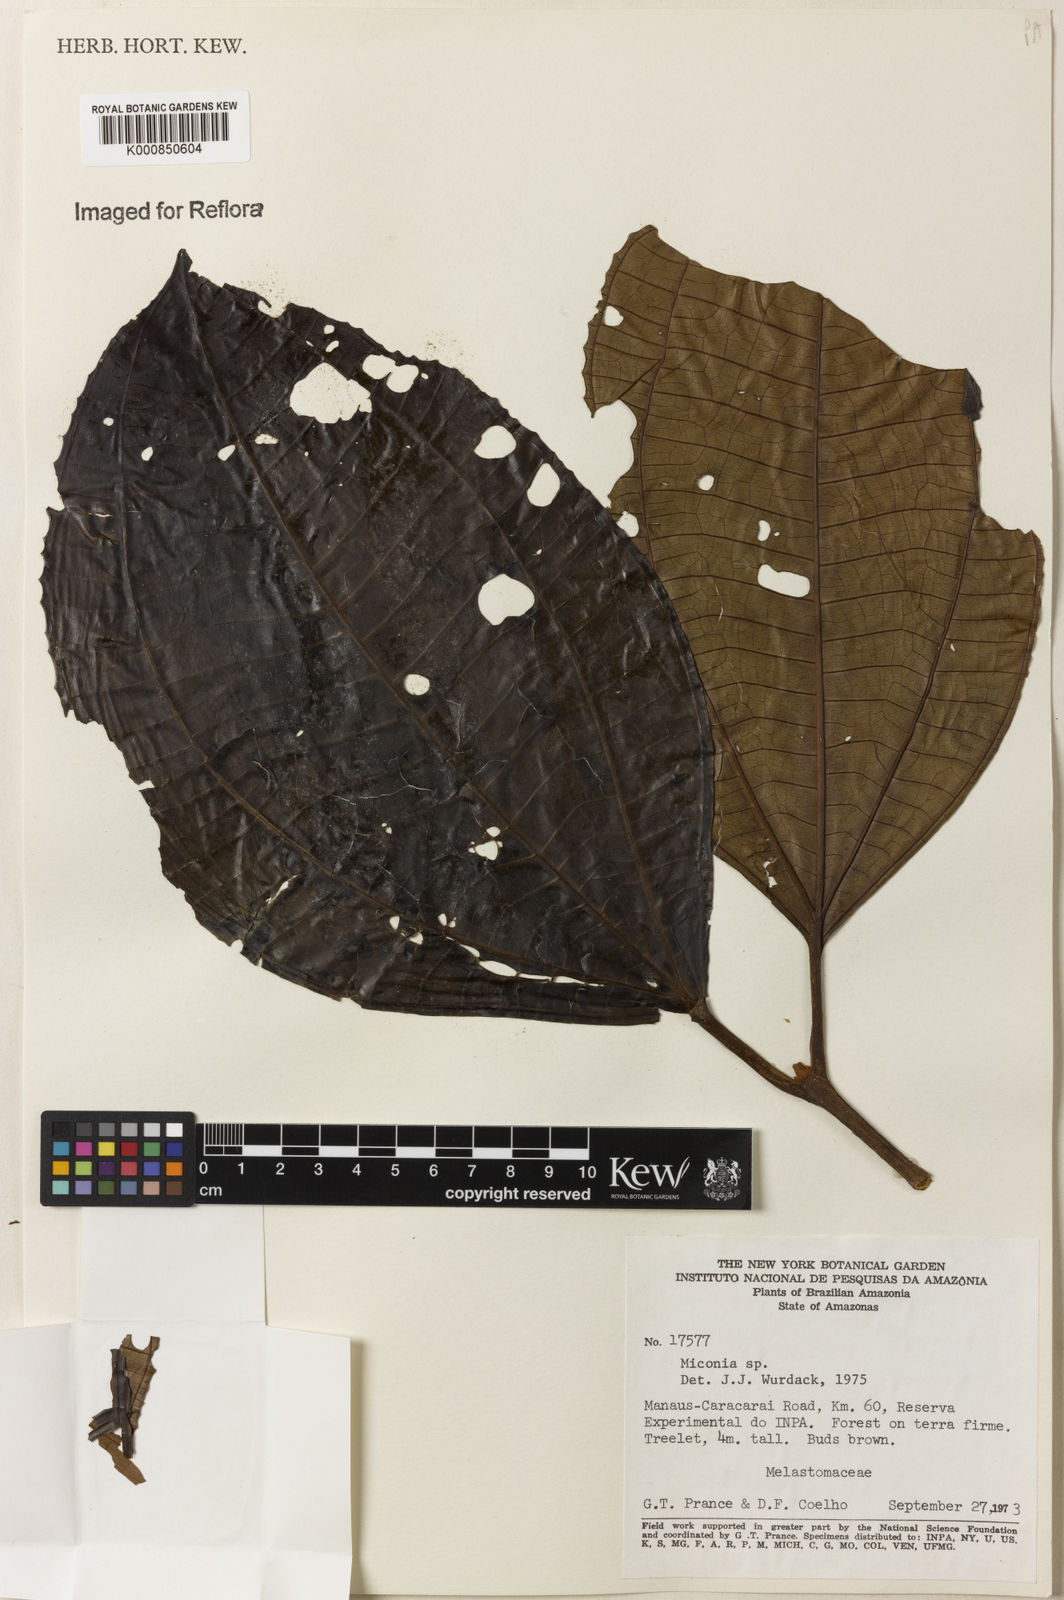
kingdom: Plantae
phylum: Tracheophyta
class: Magnoliopsida
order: Myrtales
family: Melastomataceae
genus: Miconia
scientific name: Miconia
